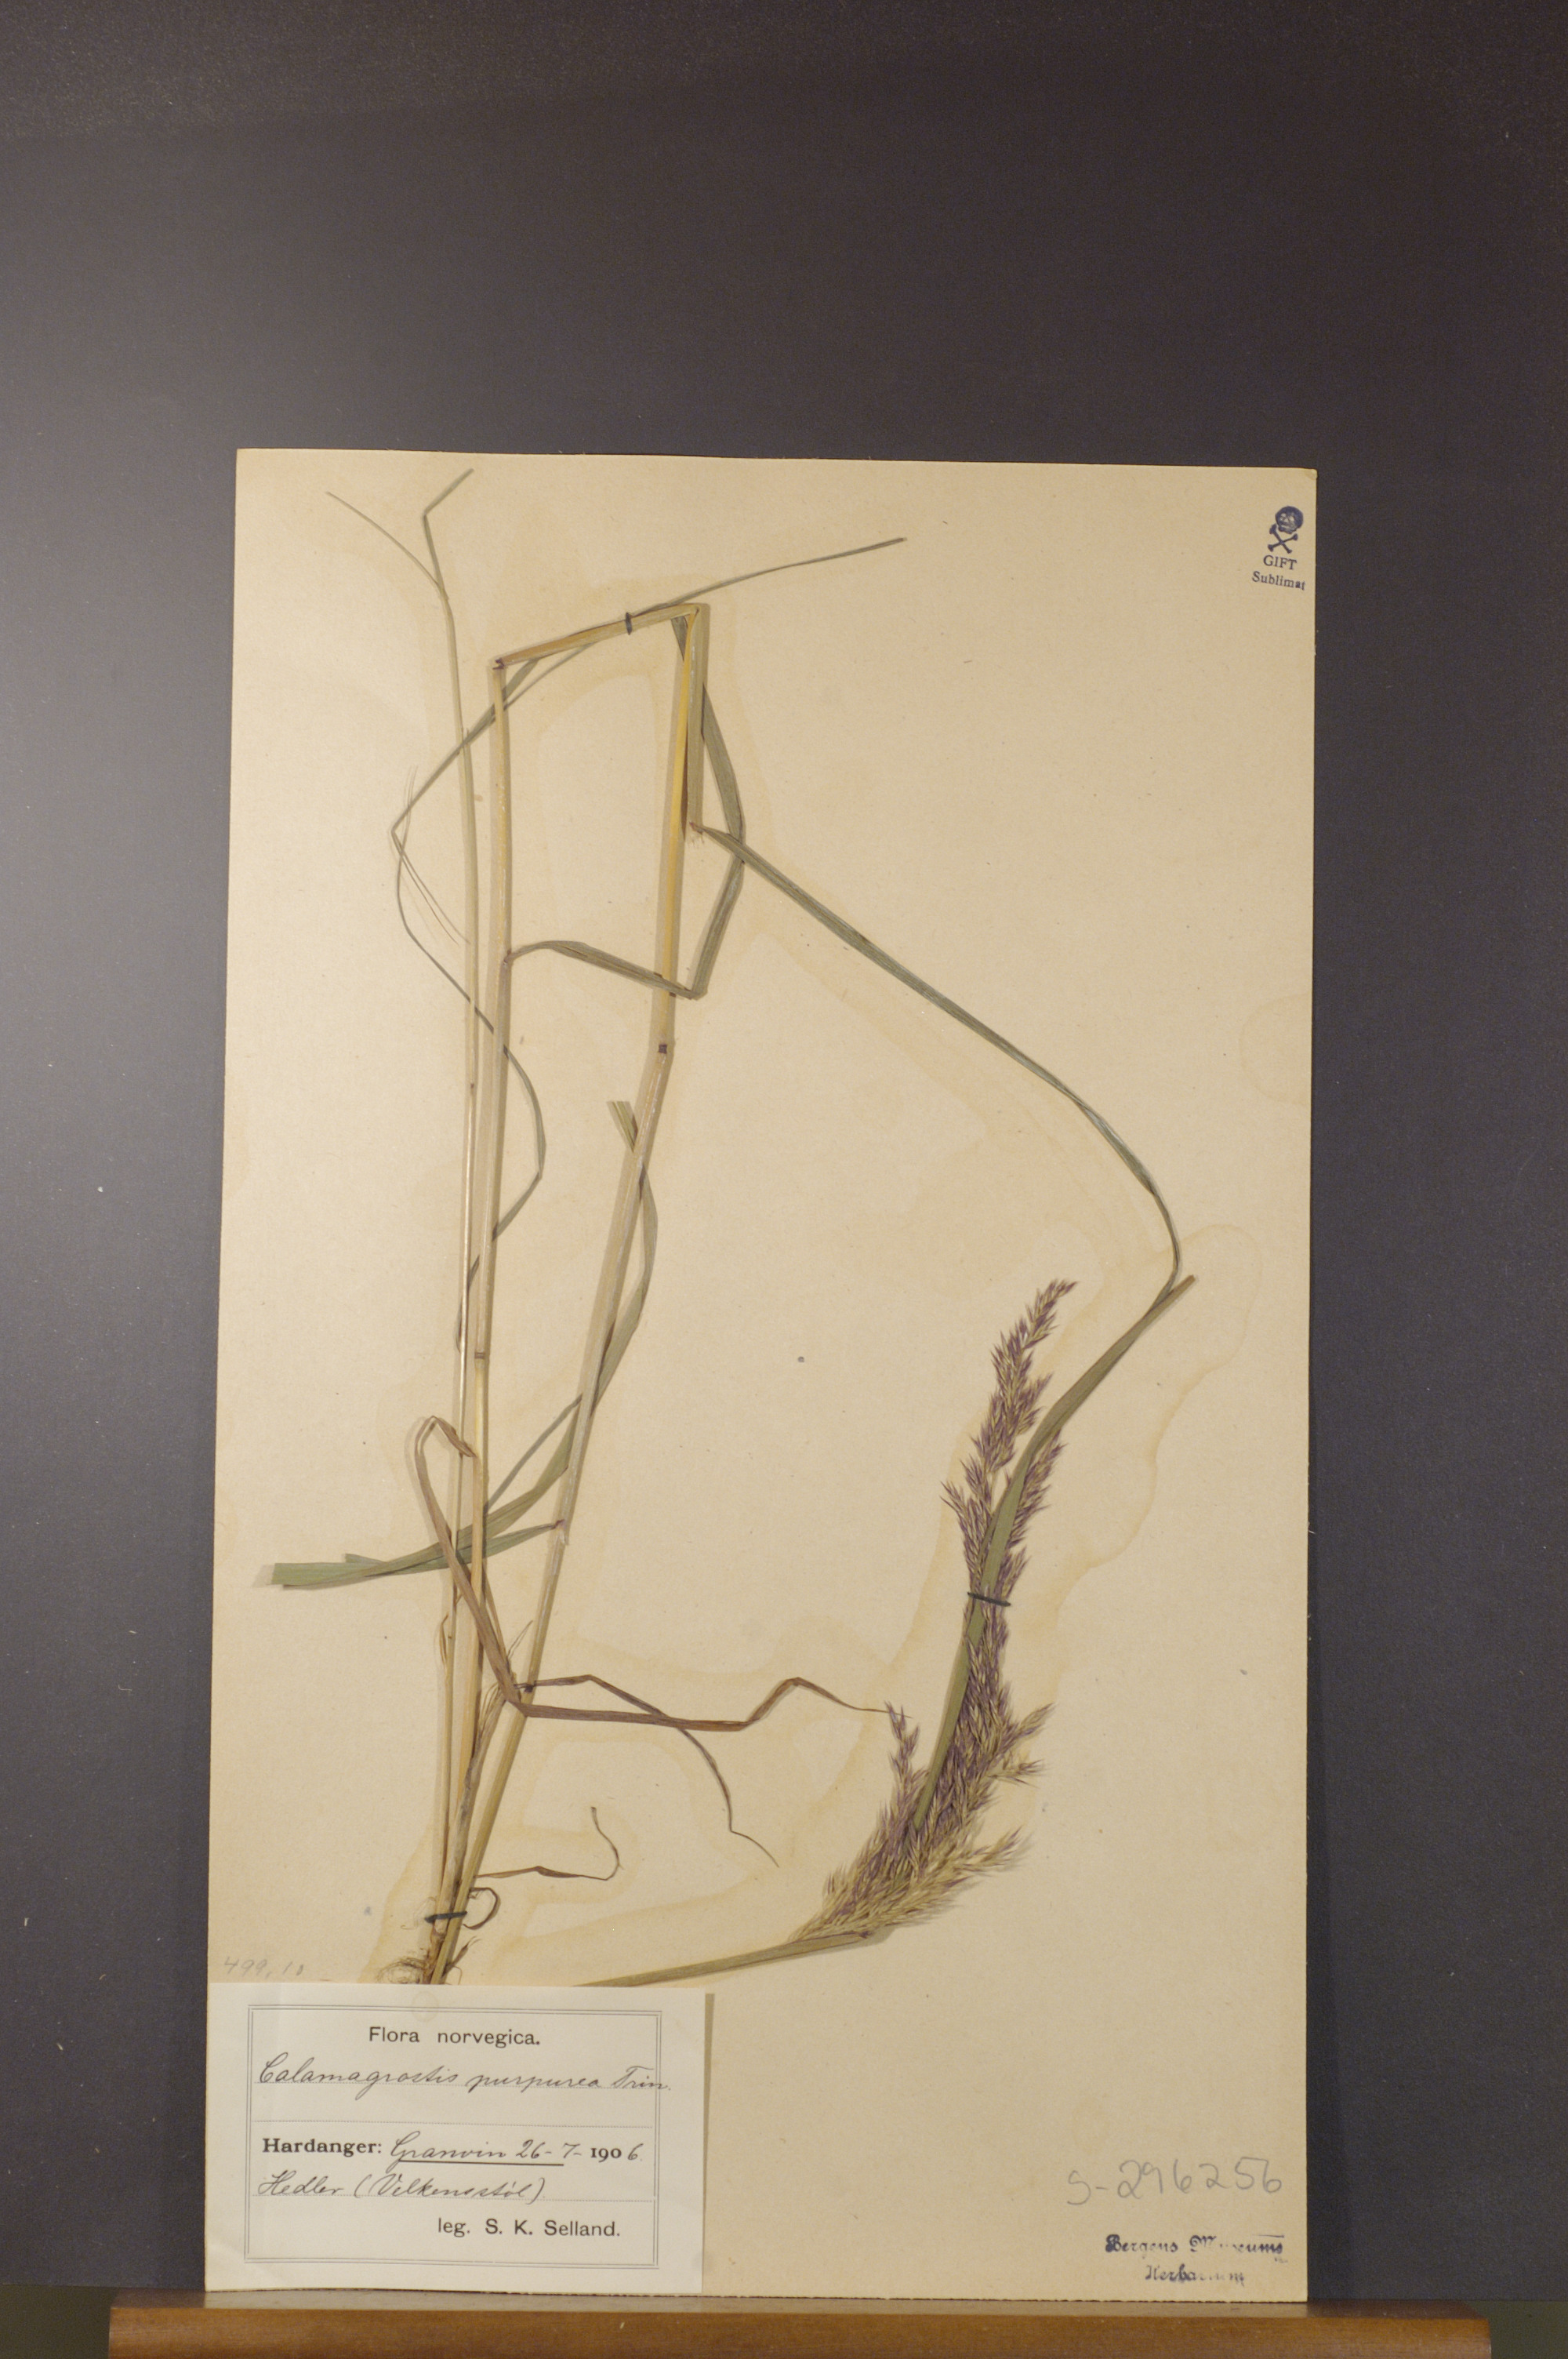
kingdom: Plantae
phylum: Tracheophyta
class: Liliopsida
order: Poales
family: Poaceae
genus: Calamagrostis
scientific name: Calamagrostis purpurea
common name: Scandinavian small-reed
